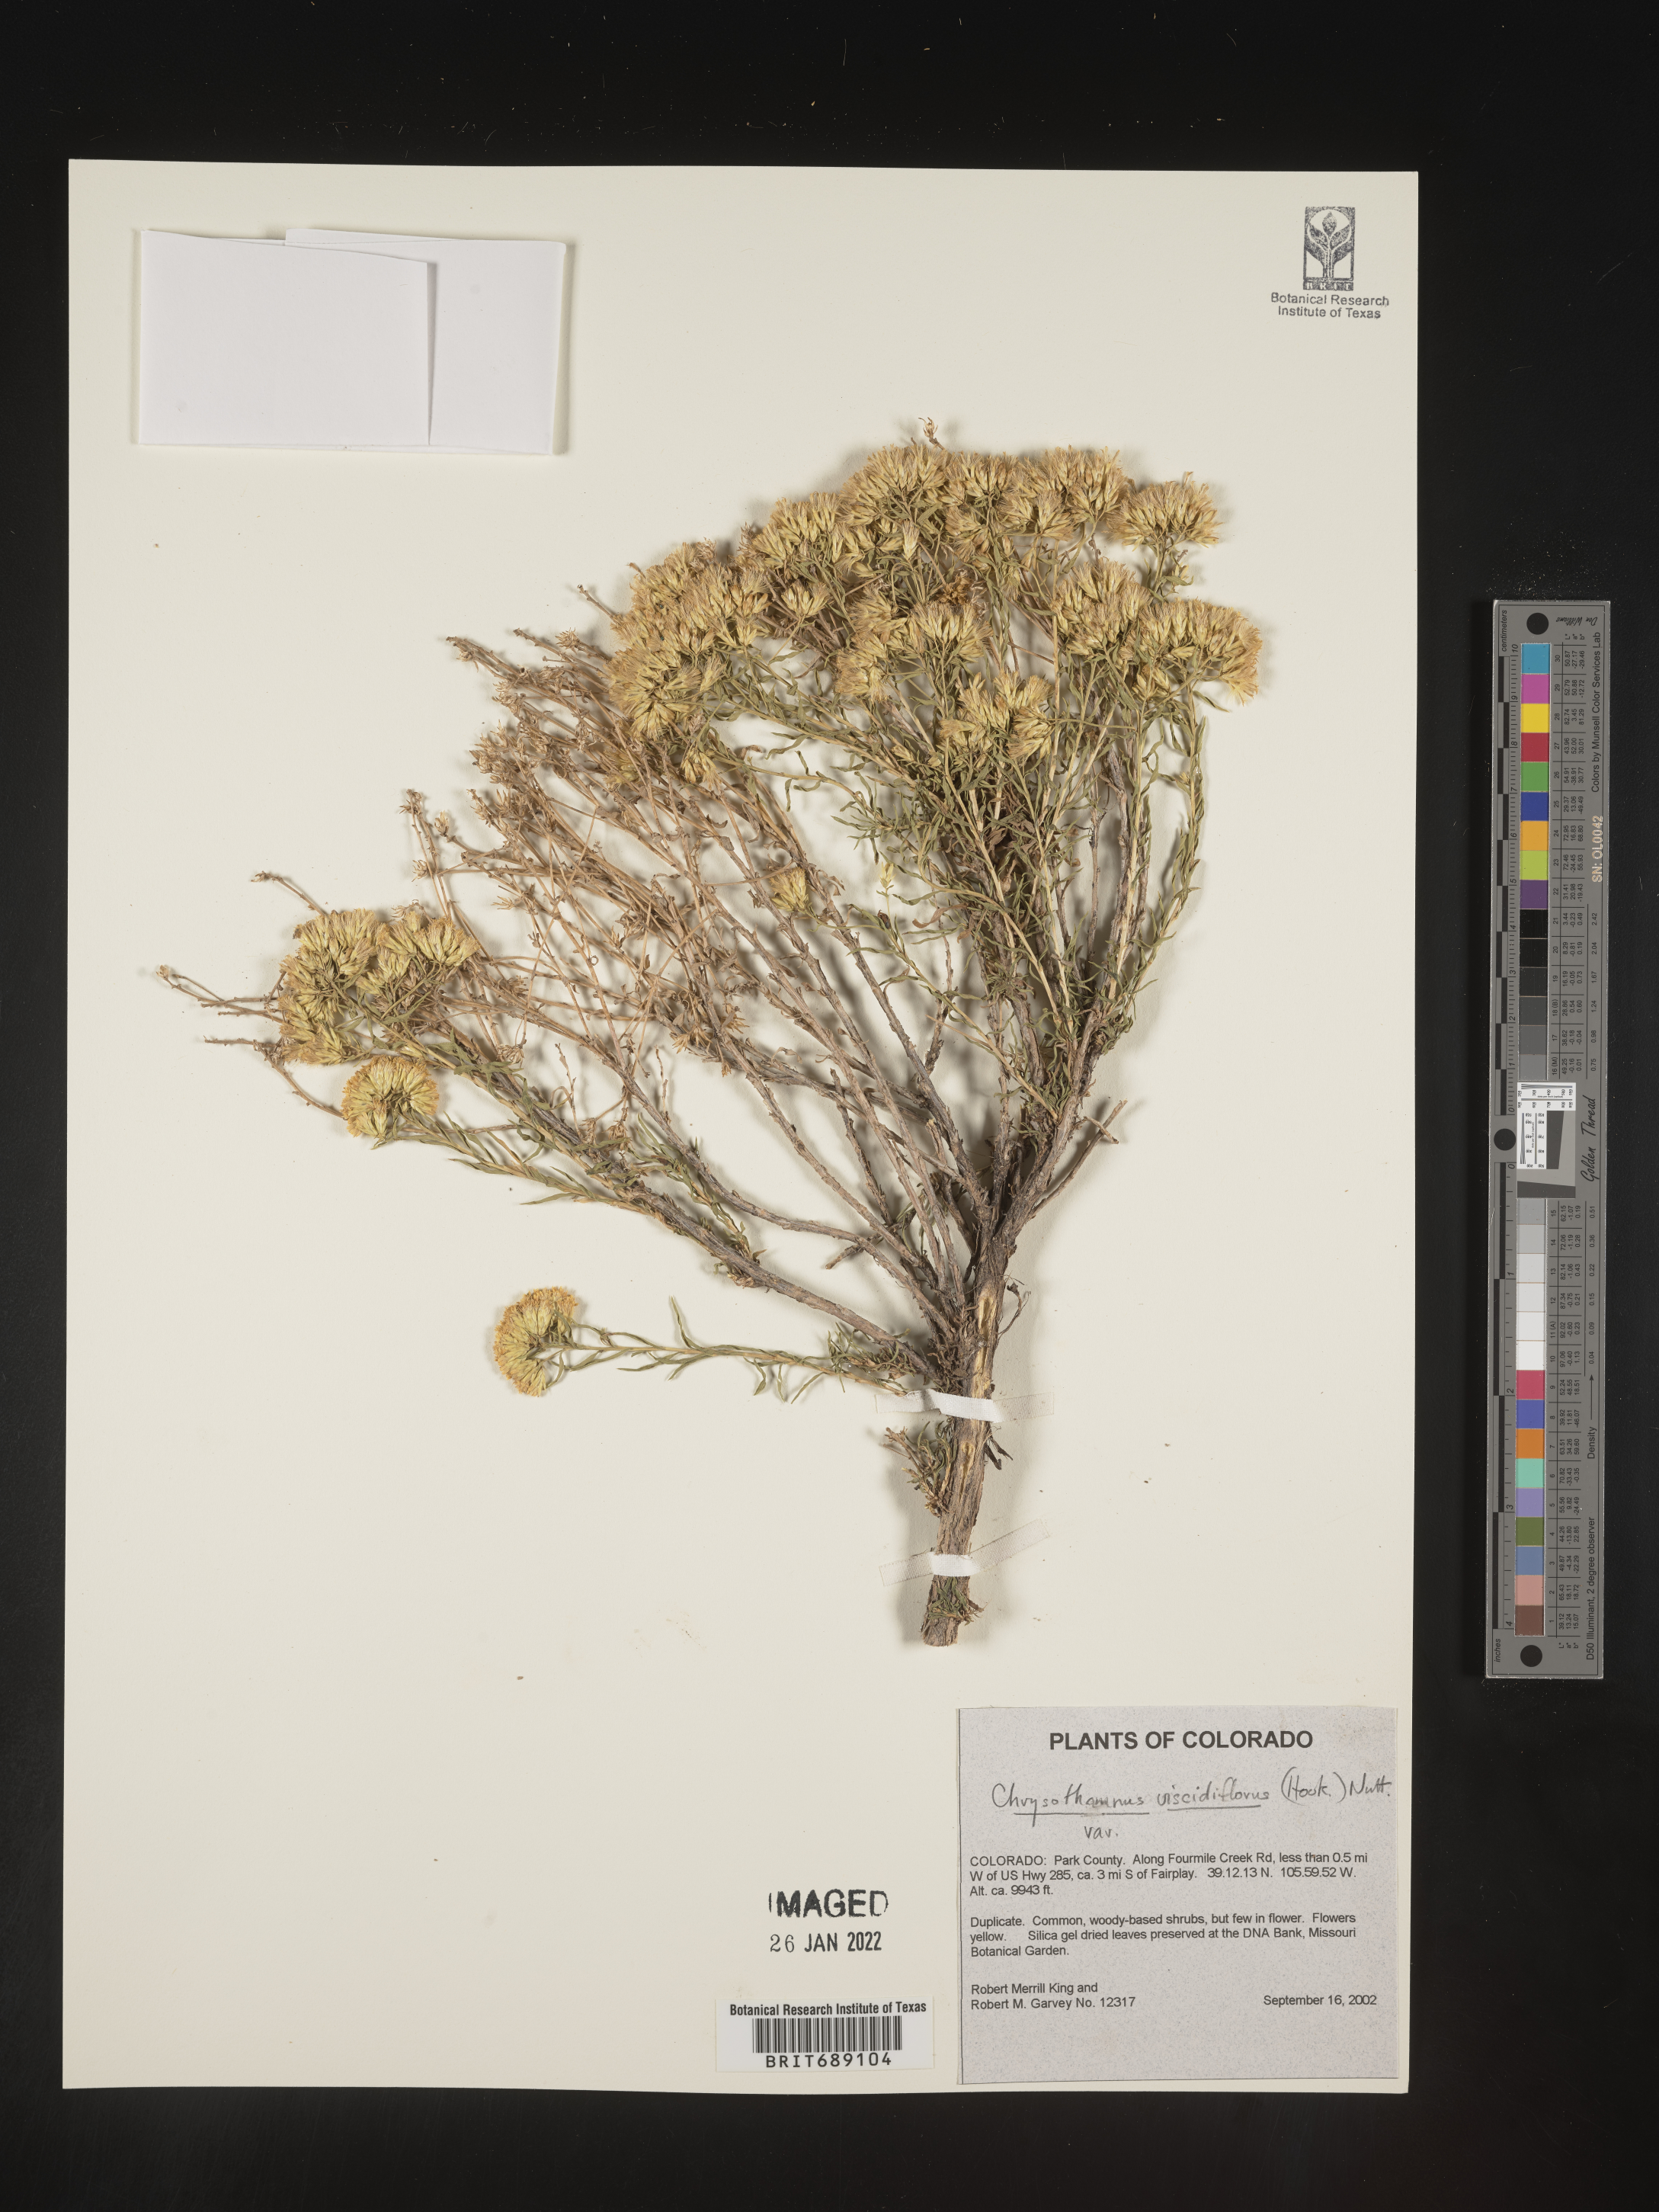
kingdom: Plantae
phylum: Tracheophyta
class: Magnoliopsida
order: Asterales
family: Asteraceae
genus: Chrysothamnus
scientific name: Chrysothamnus viscidiflorus
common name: Yellow rabbitbrush
